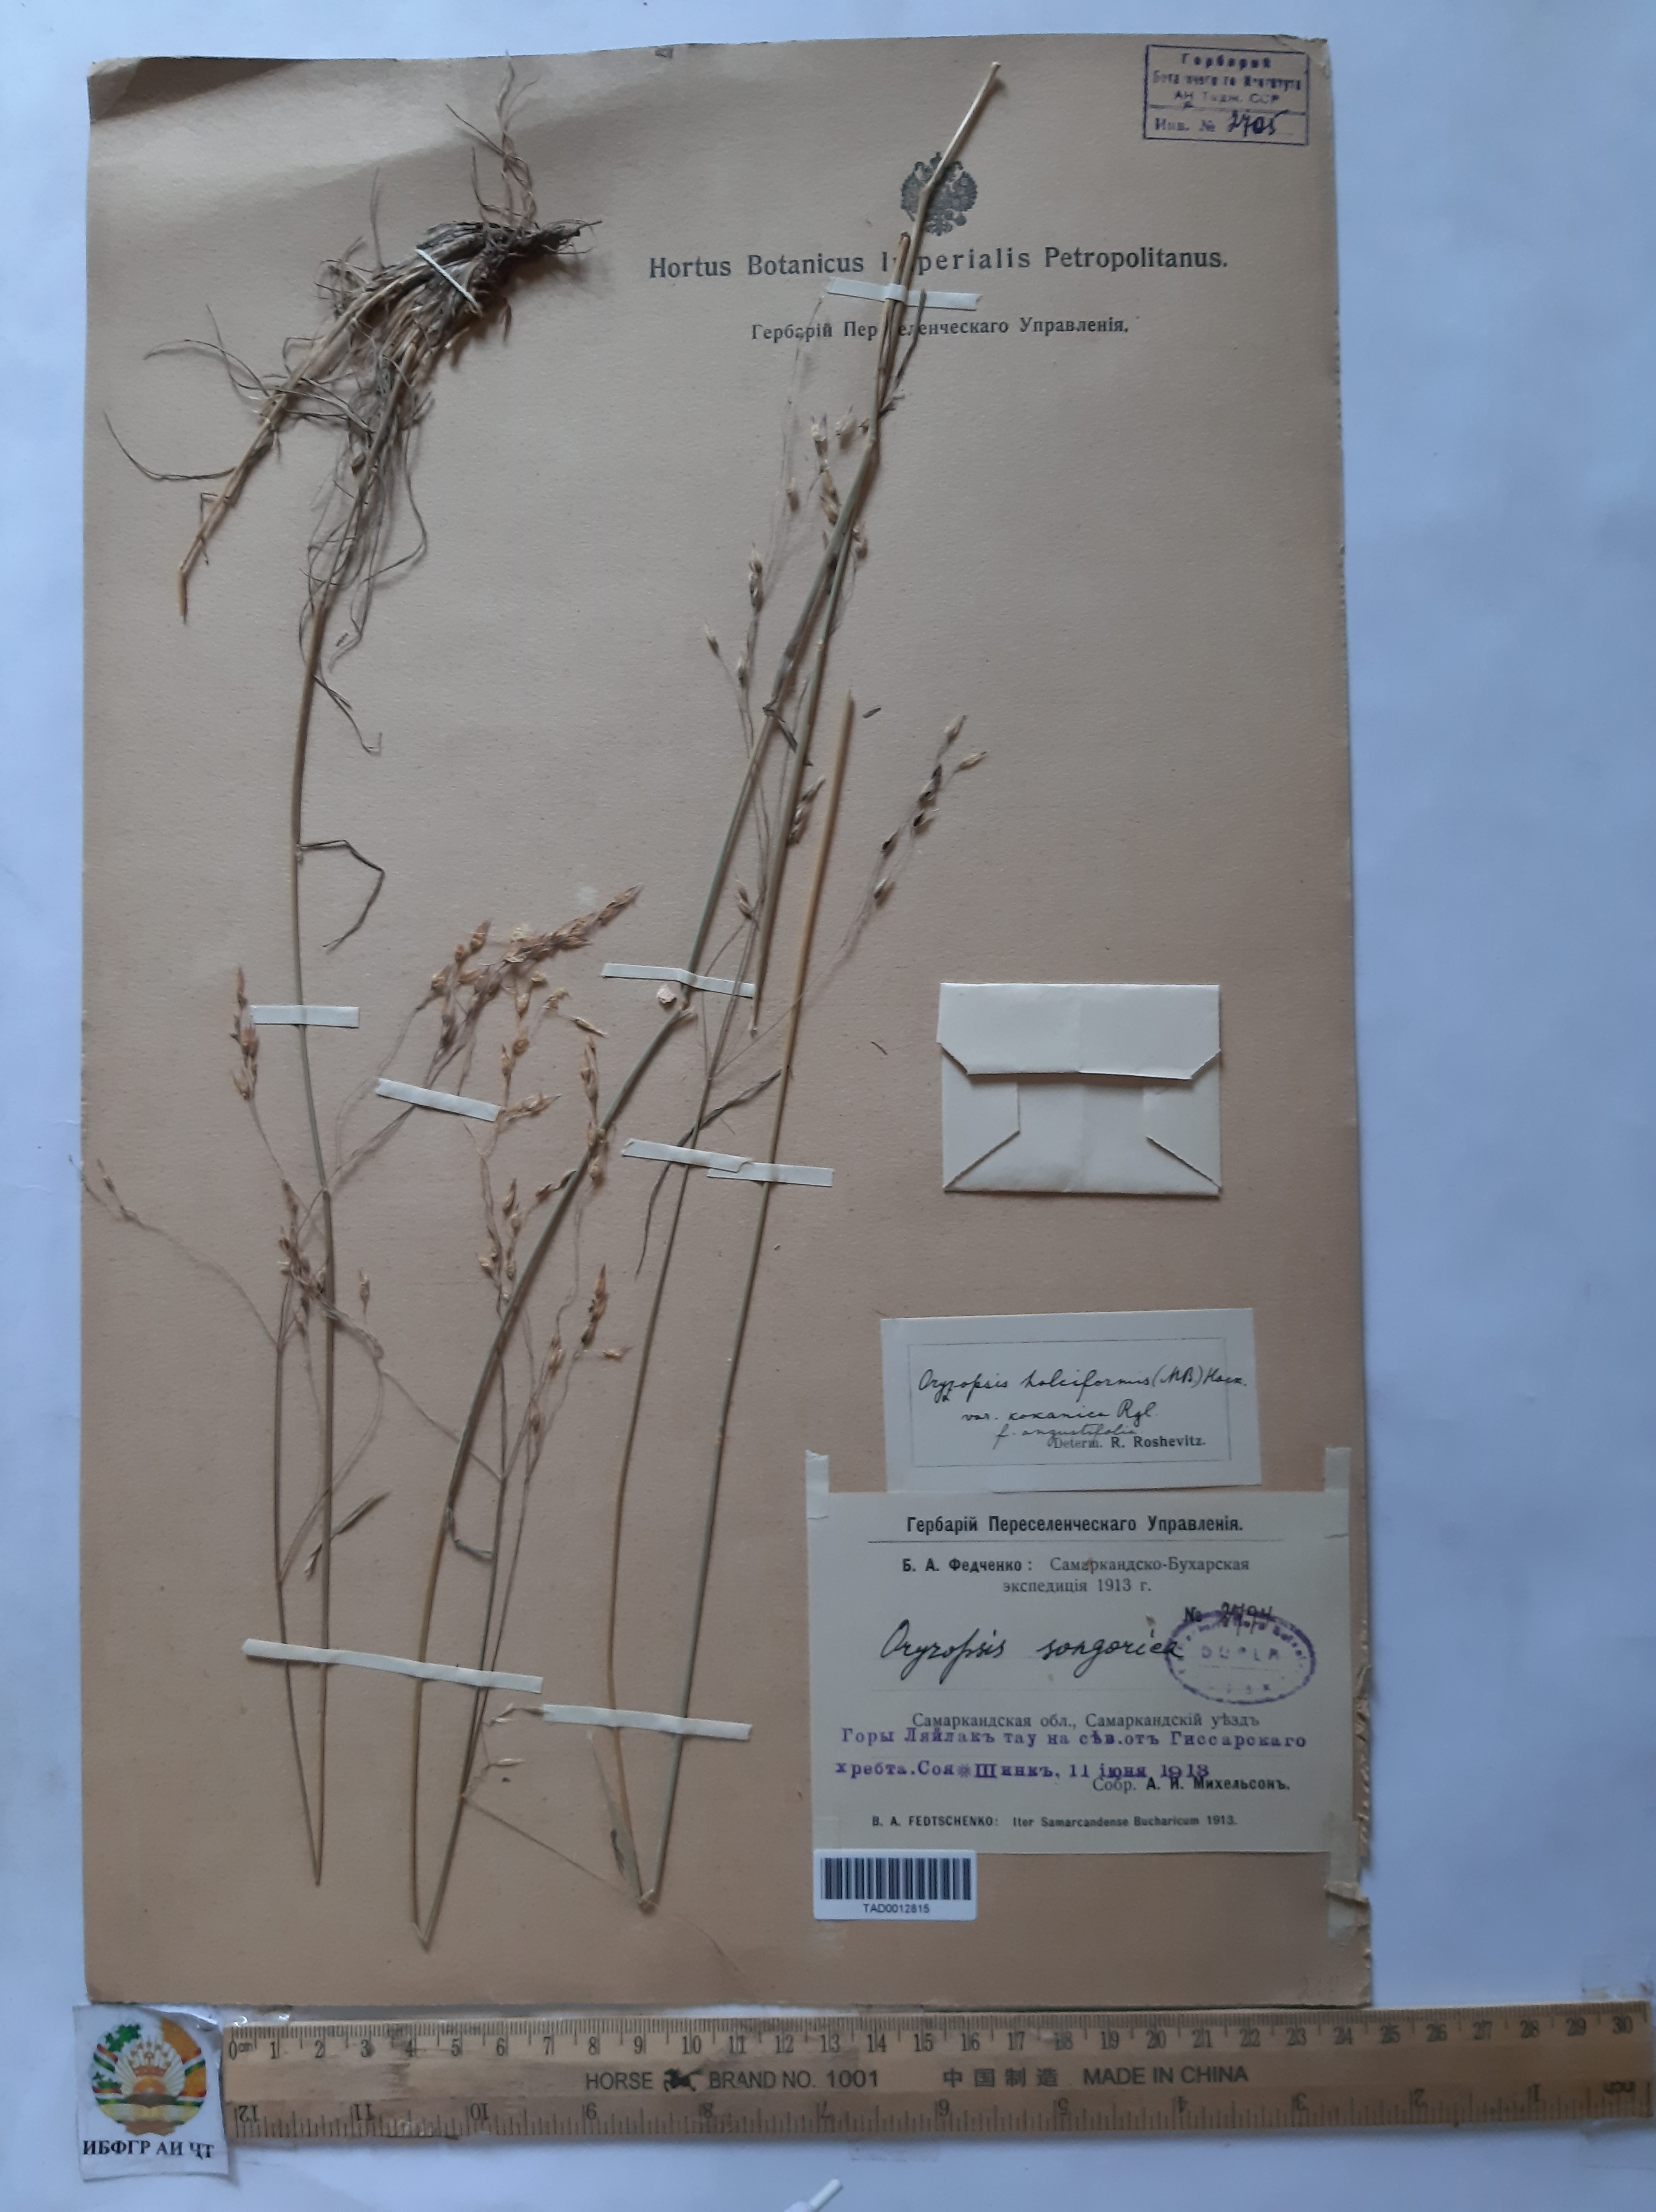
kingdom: Plantae
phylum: Tracheophyta
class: Liliopsida
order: Poales
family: Poaceae
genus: Piptatherum
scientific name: Piptatherum songaricum
